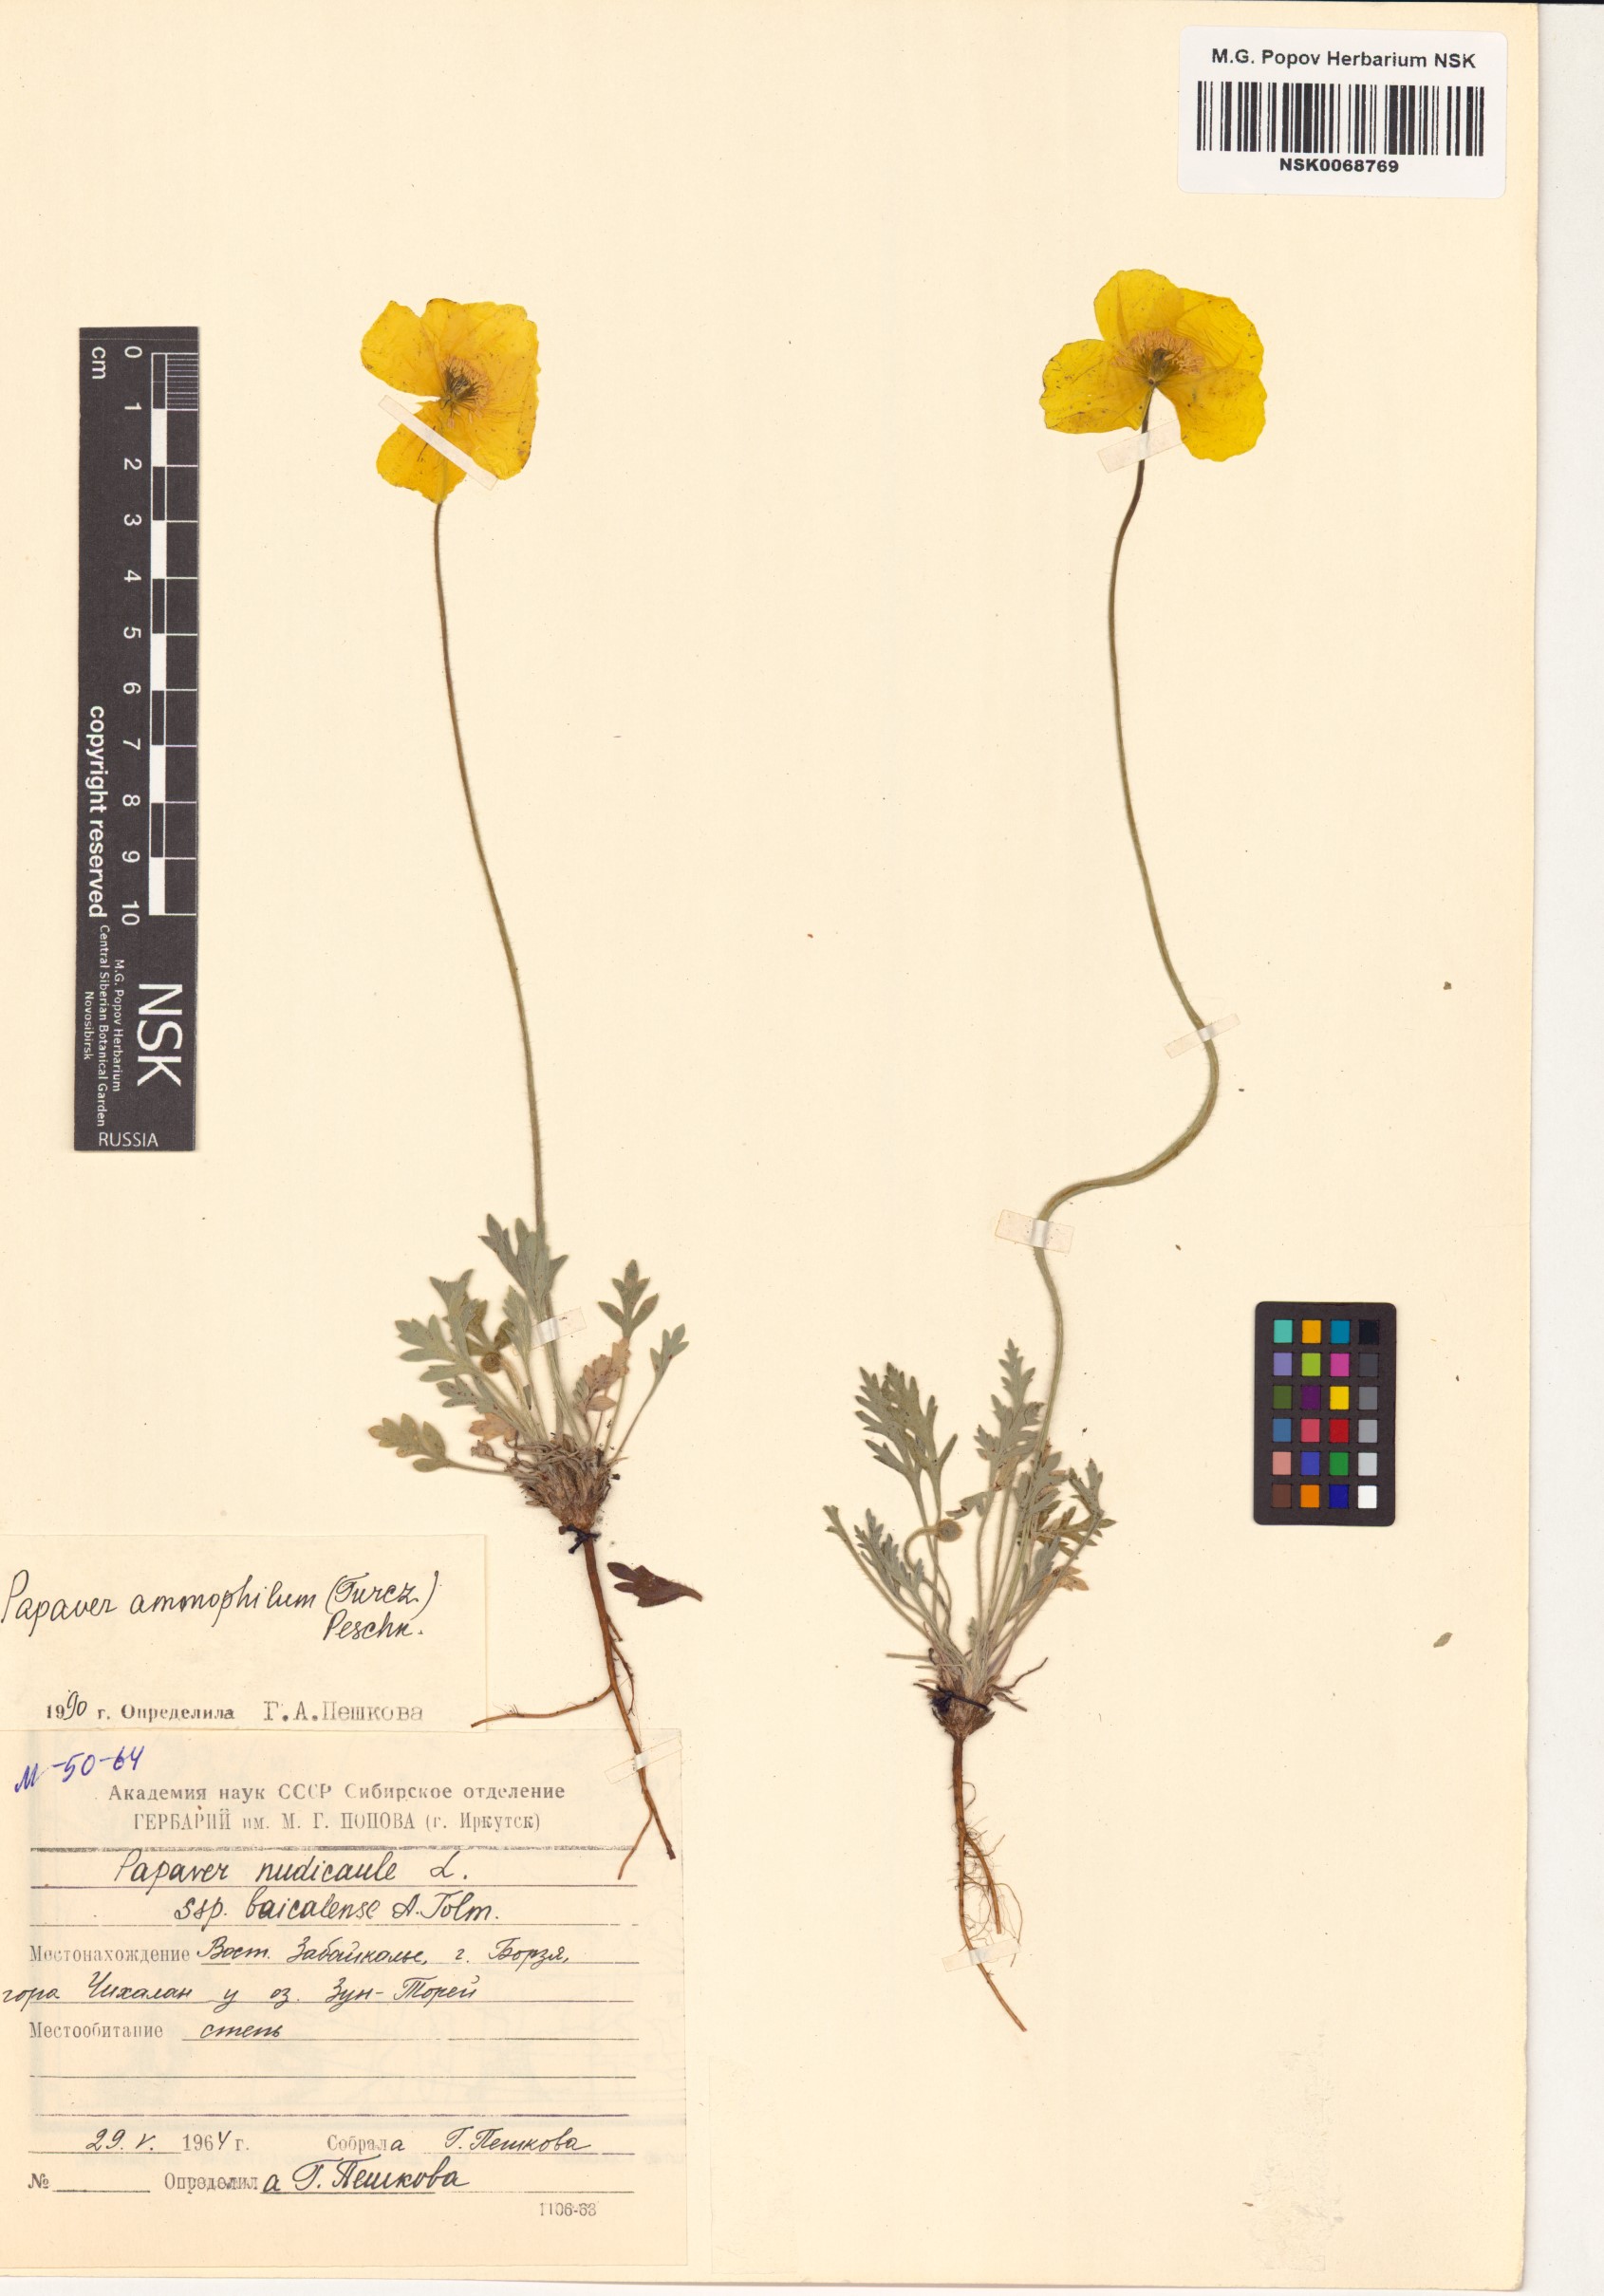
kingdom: Plantae
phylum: Tracheophyta
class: Magnoliopsida
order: Ranunculales
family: Papaveraceae
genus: Papaver
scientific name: Papaver nudicaule
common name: Arctic poppy
